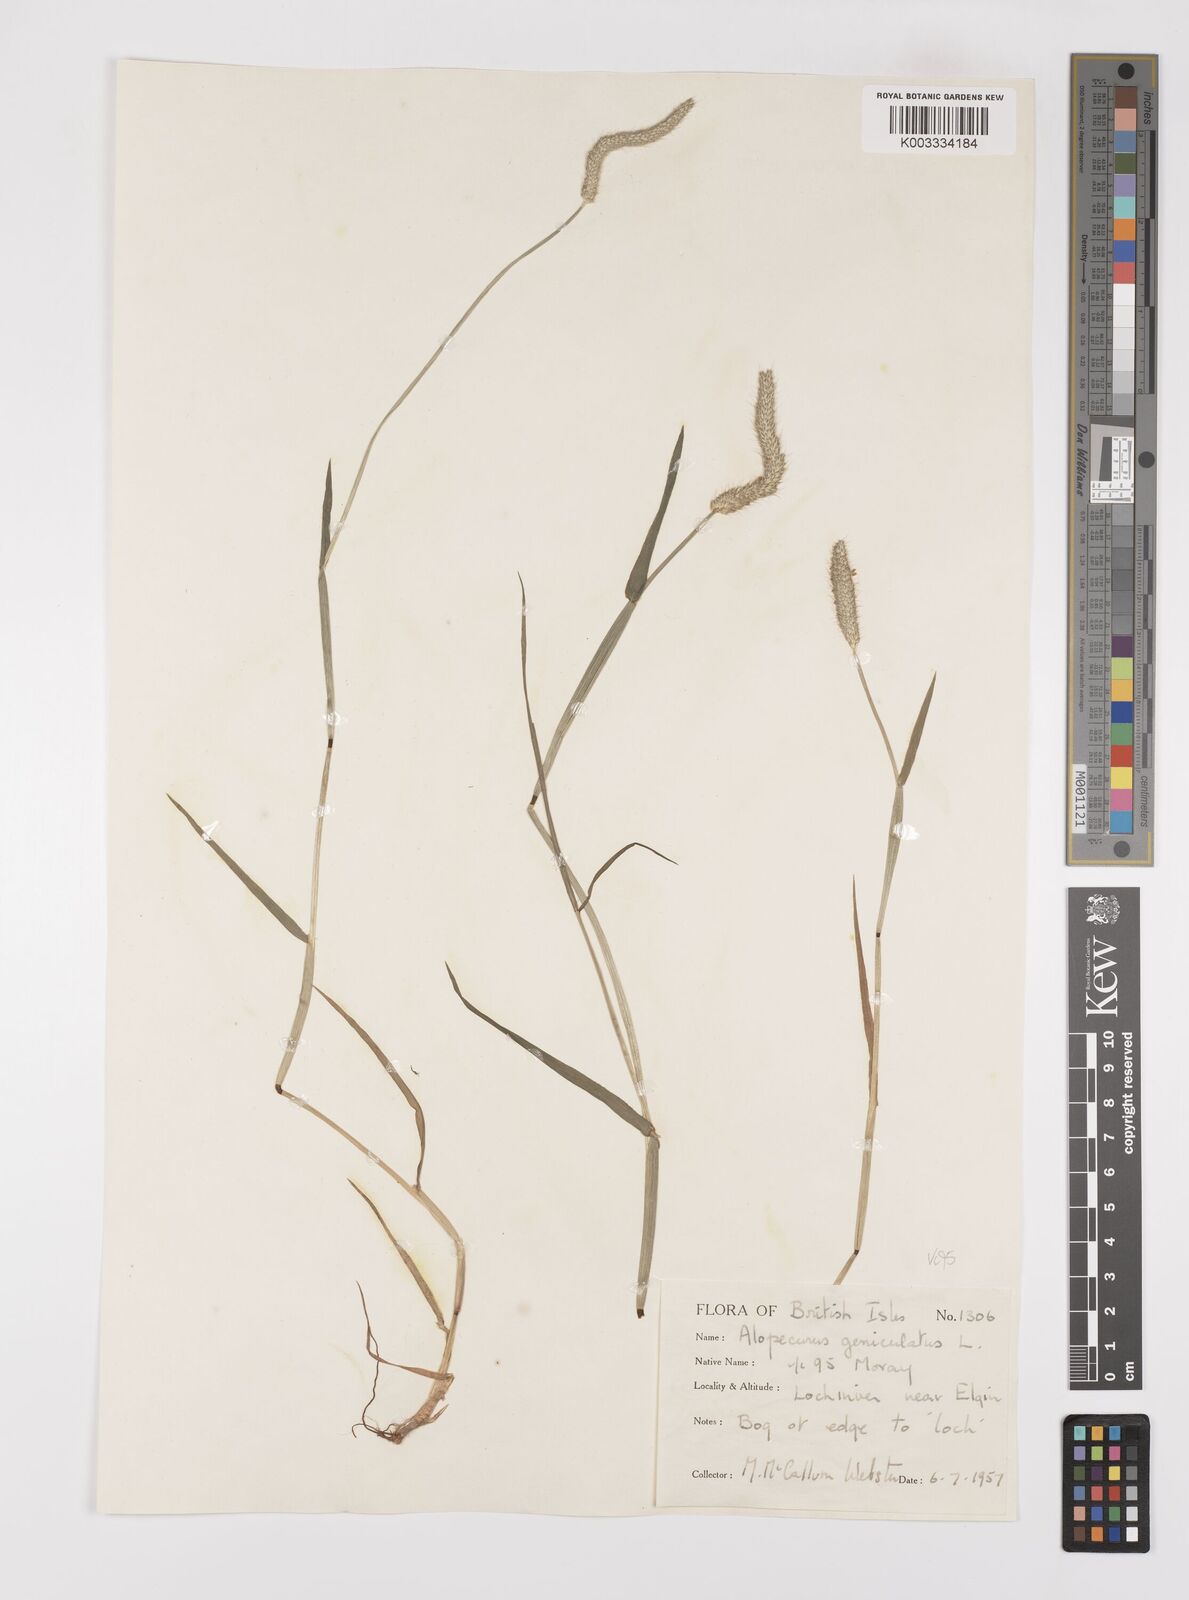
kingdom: Plantae
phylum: Tracheophyta
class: Liliopsida
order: Poales
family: Poaceae
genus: Alopecurus
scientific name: Alopecurus geniculatus
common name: Water foxtail
